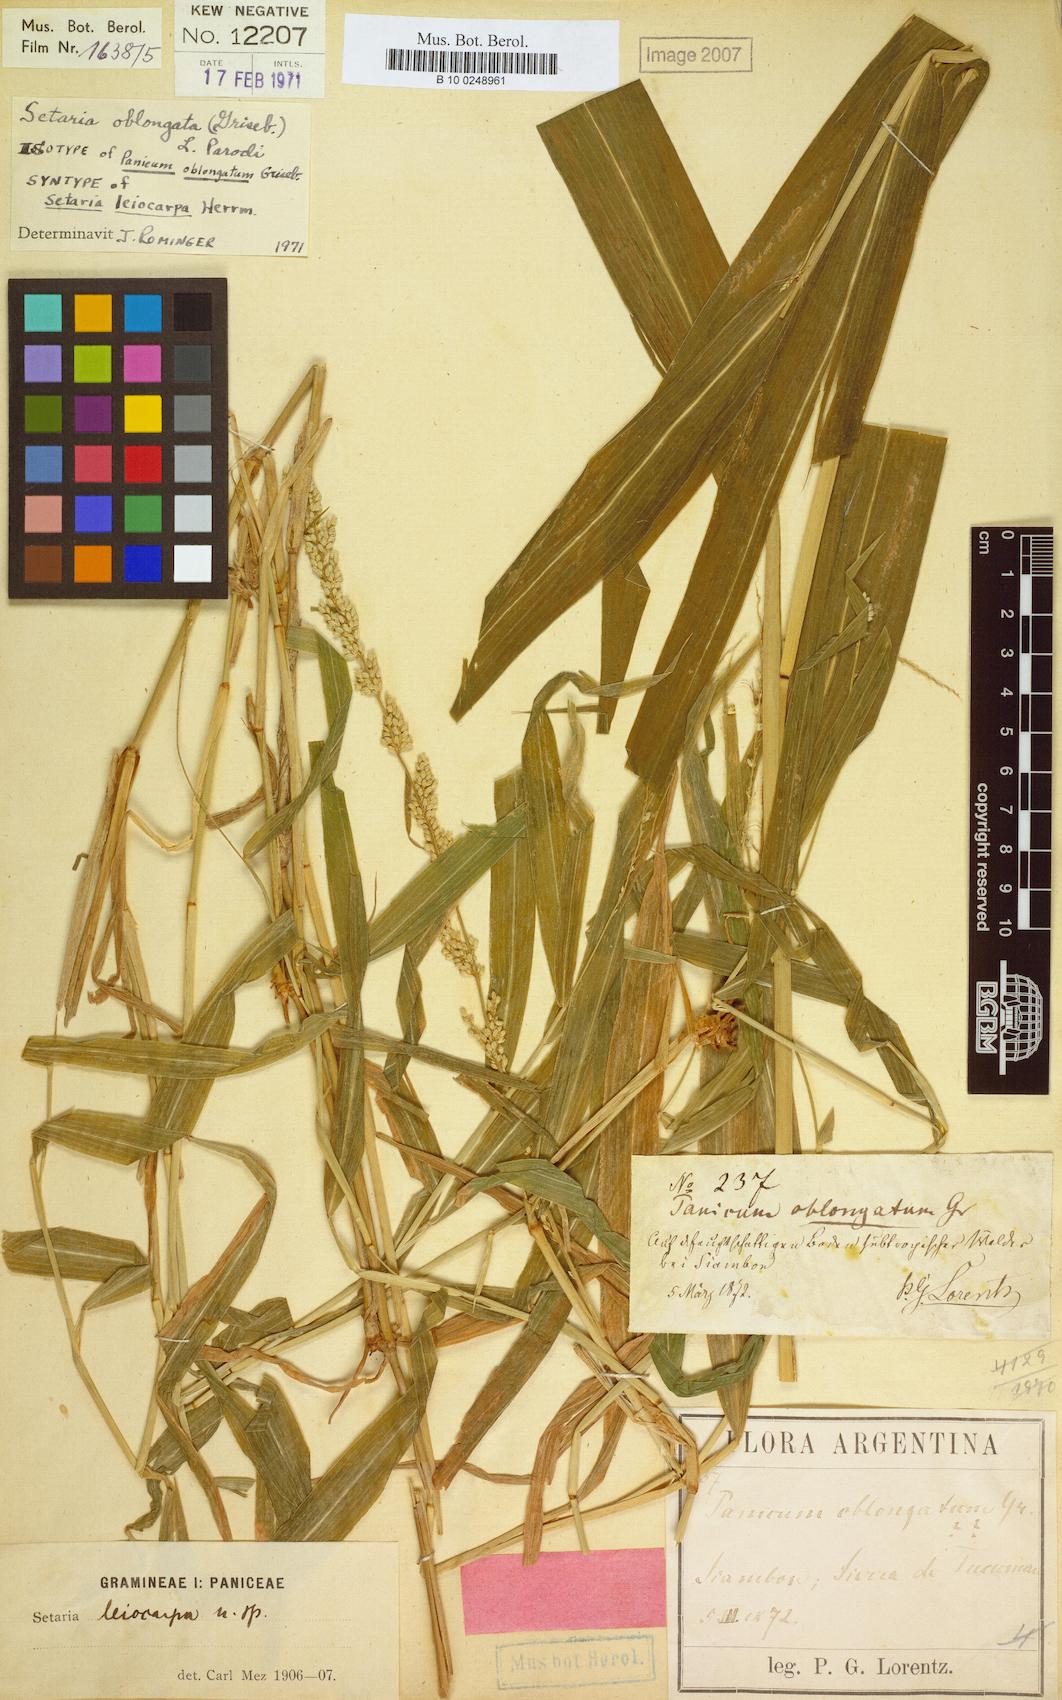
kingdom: Plantae
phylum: Tracheophyta
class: Liliopsida
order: Poales
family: Poaceae
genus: Setaria
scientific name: Setaria oblongata
